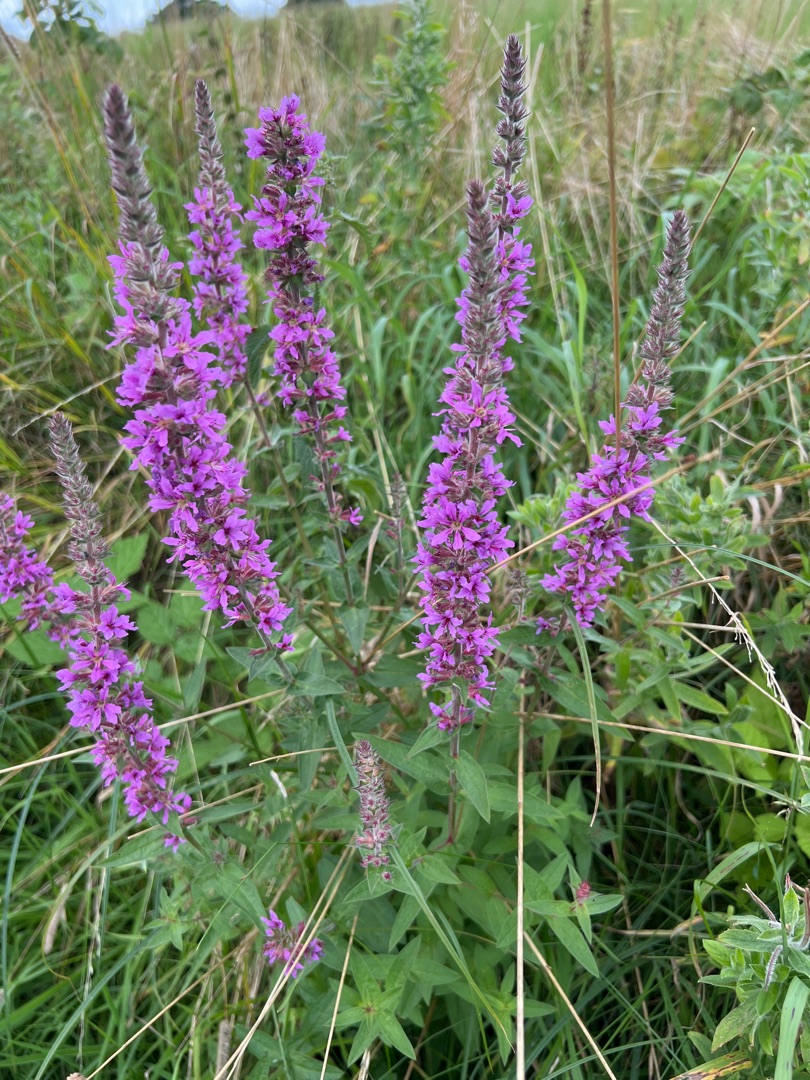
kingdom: Plantae
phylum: Tracheophyta
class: Magnoliopsida
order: Myrtales
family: Lythraceae
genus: Lythrum
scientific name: Lythrum salicaria
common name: Kattehale
